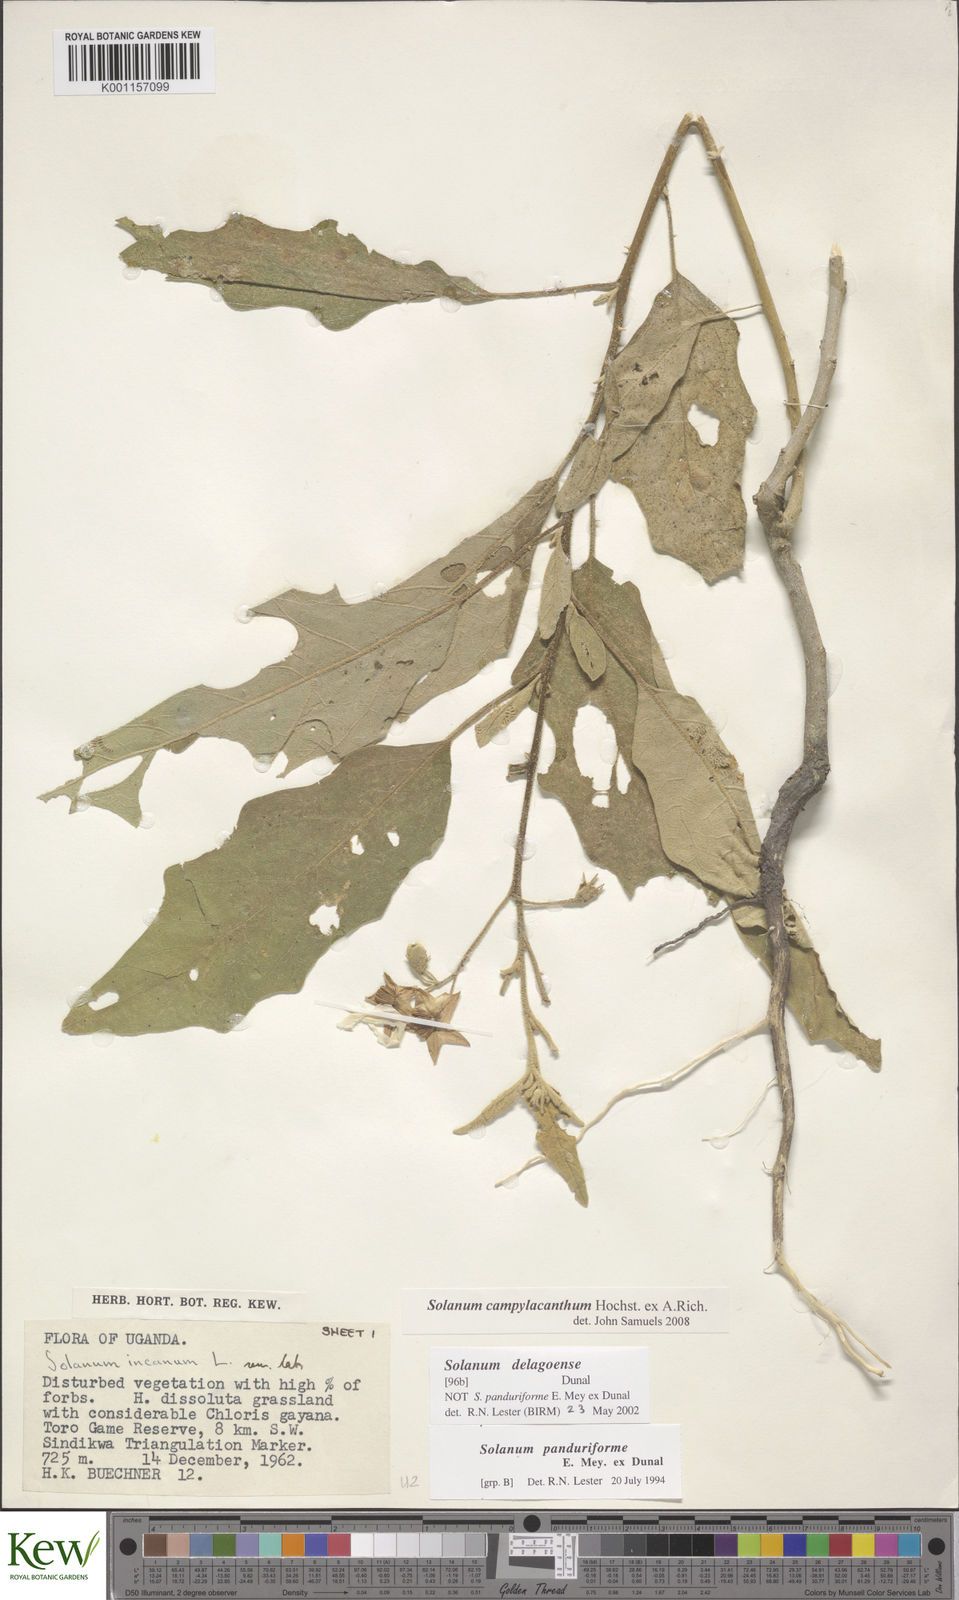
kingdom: Plantae
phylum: Tracheophyta
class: Magnoliopsida
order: Solanales
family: Solanaceae
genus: Solanum
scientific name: Solanum campylacanthum
